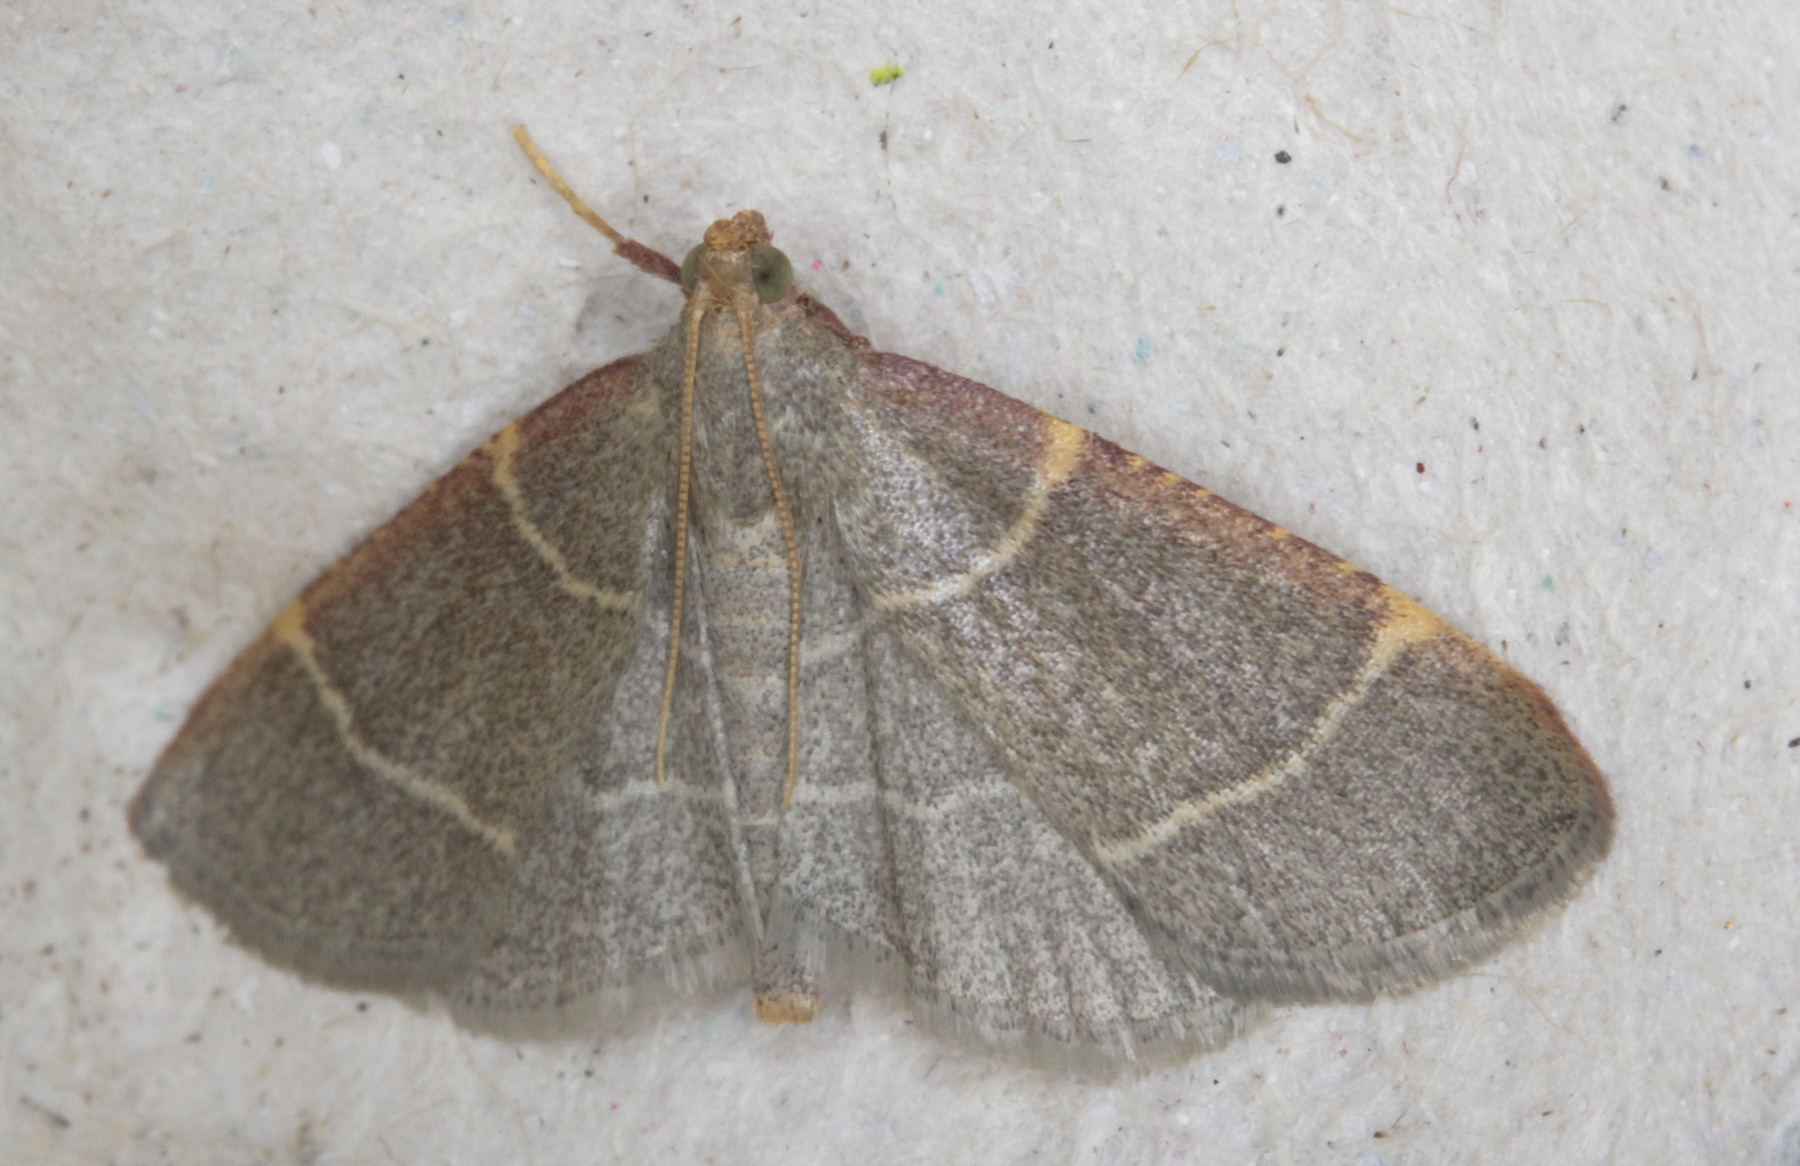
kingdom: Animalia
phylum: Arthropoda
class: Insecta
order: Lepidoptera
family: Pyralidae
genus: Hypsopygia
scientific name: Hypsopygia glaucinalis
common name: Double-striped tabby
